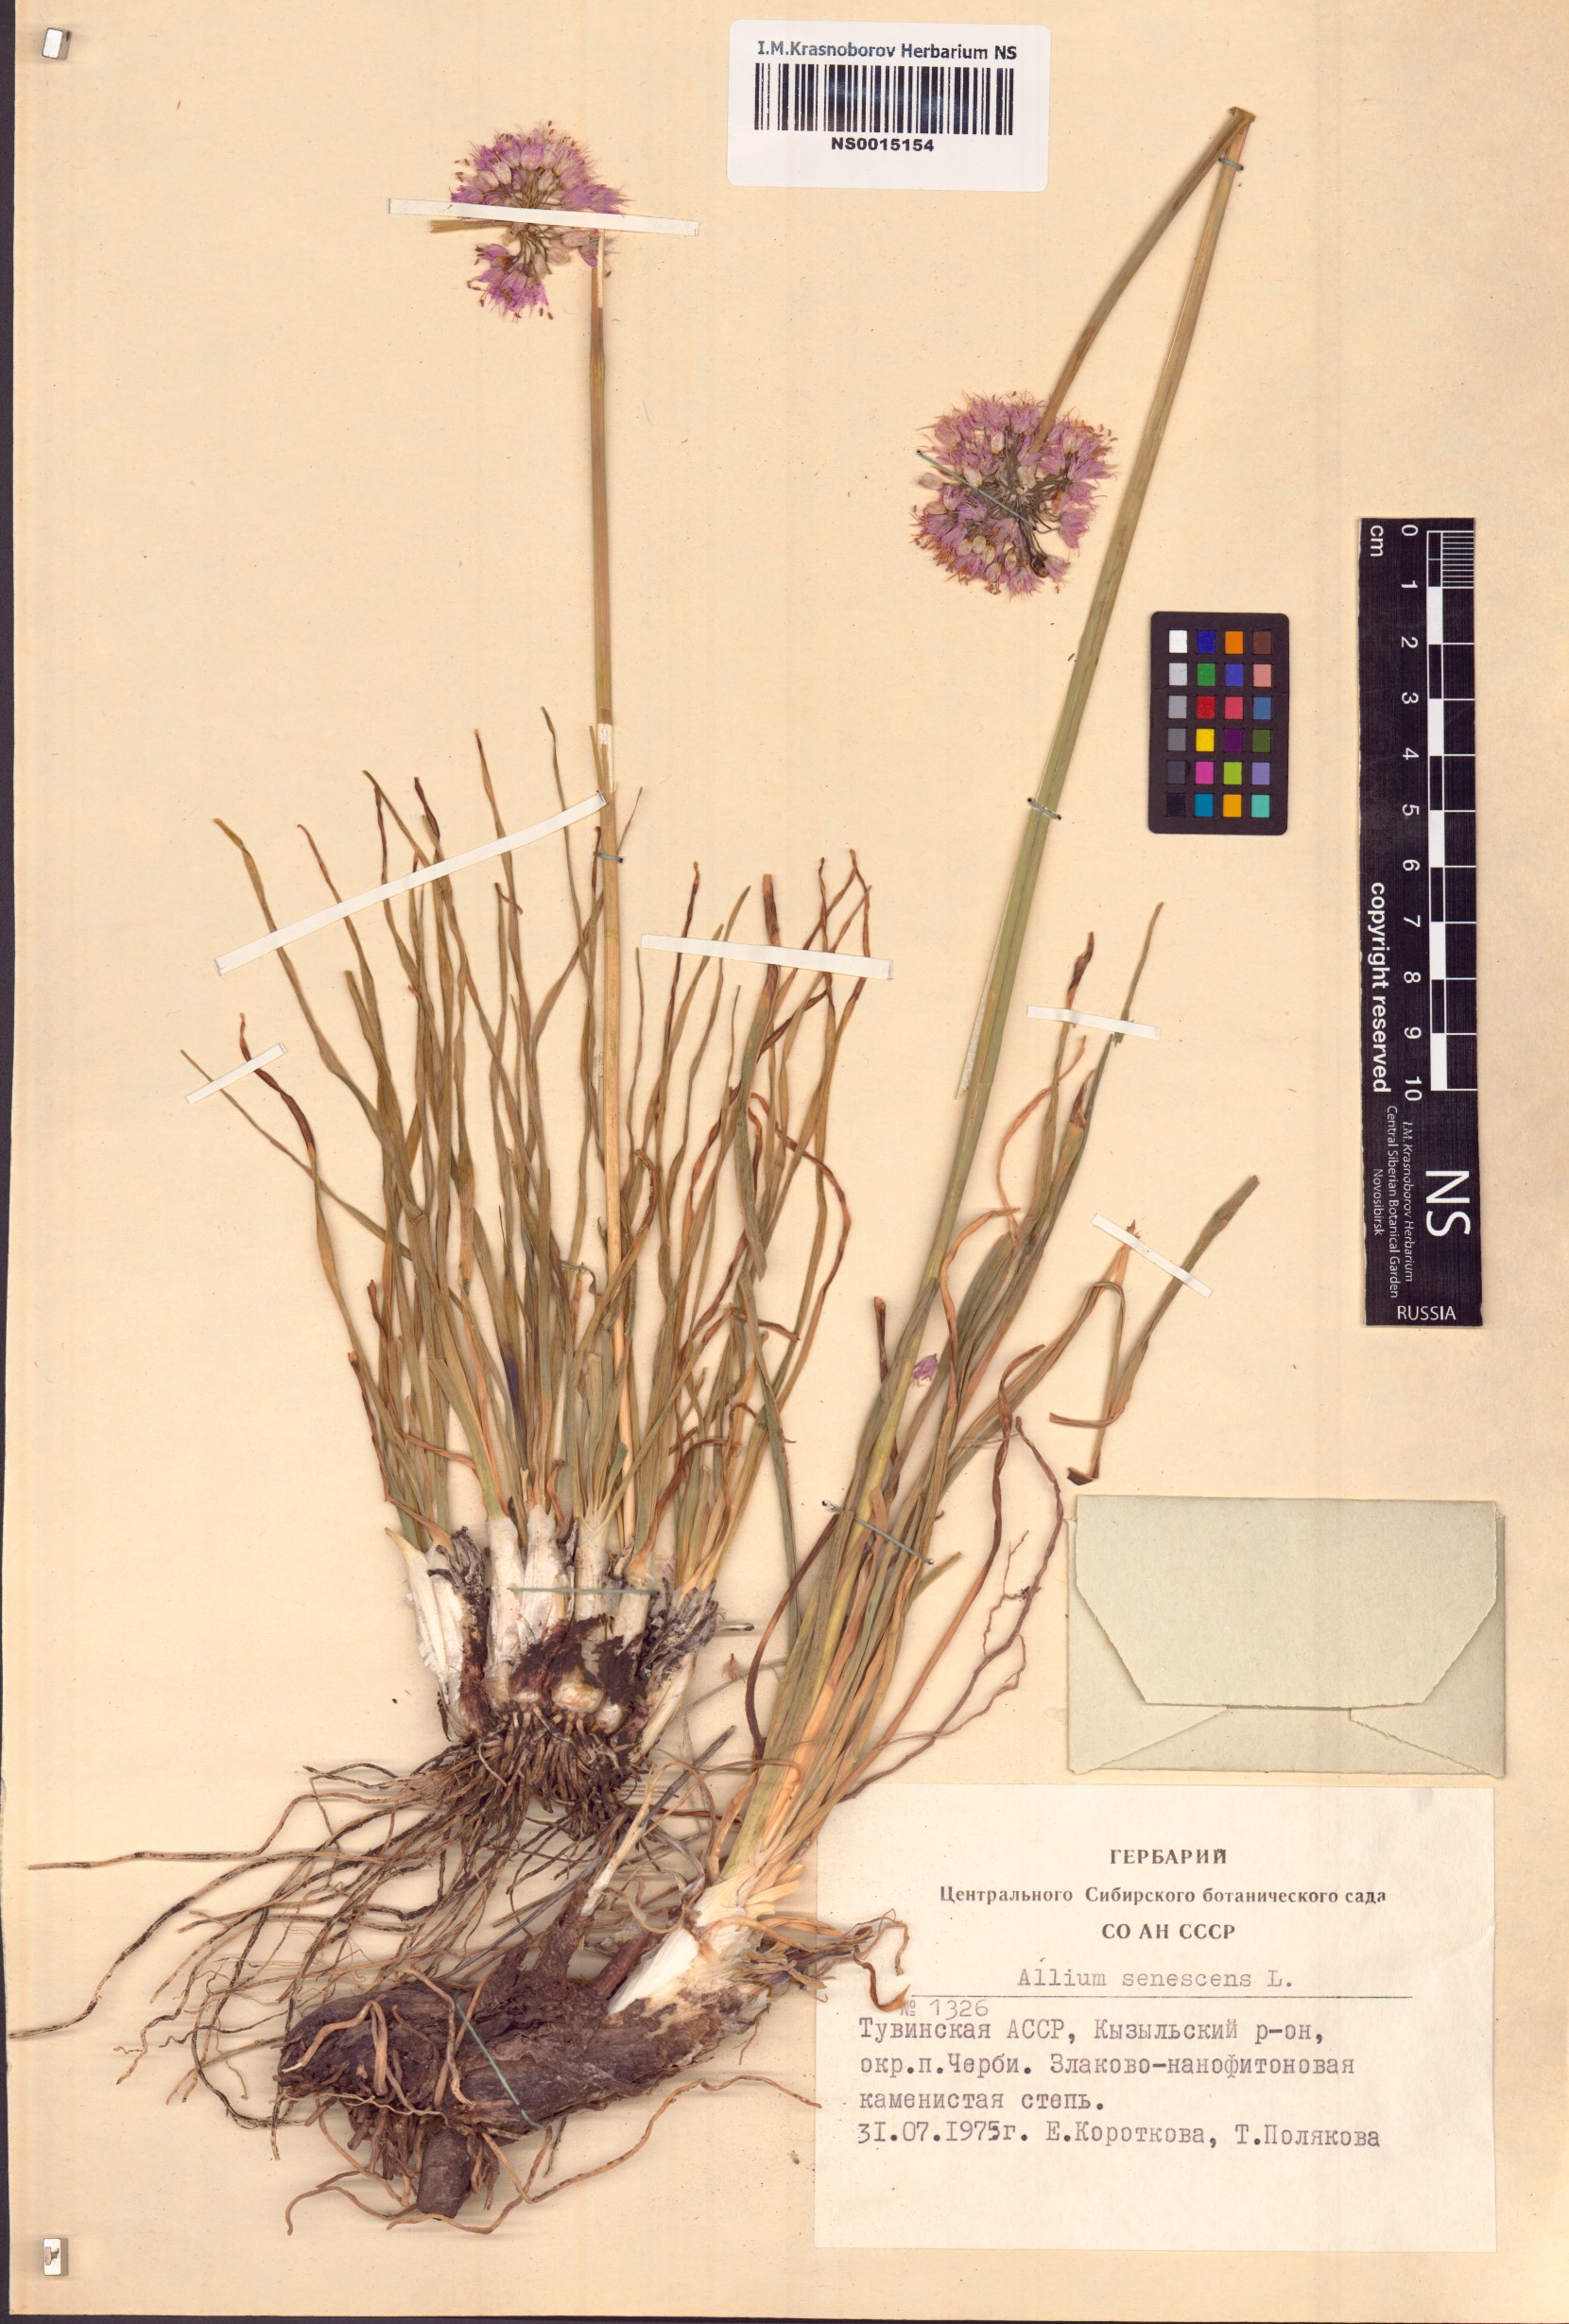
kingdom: Plantae
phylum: Tracheophyta
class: Liliopsida
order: Asparagales
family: Amaryllidaceae
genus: Allium
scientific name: Allium senescens
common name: German garlic
